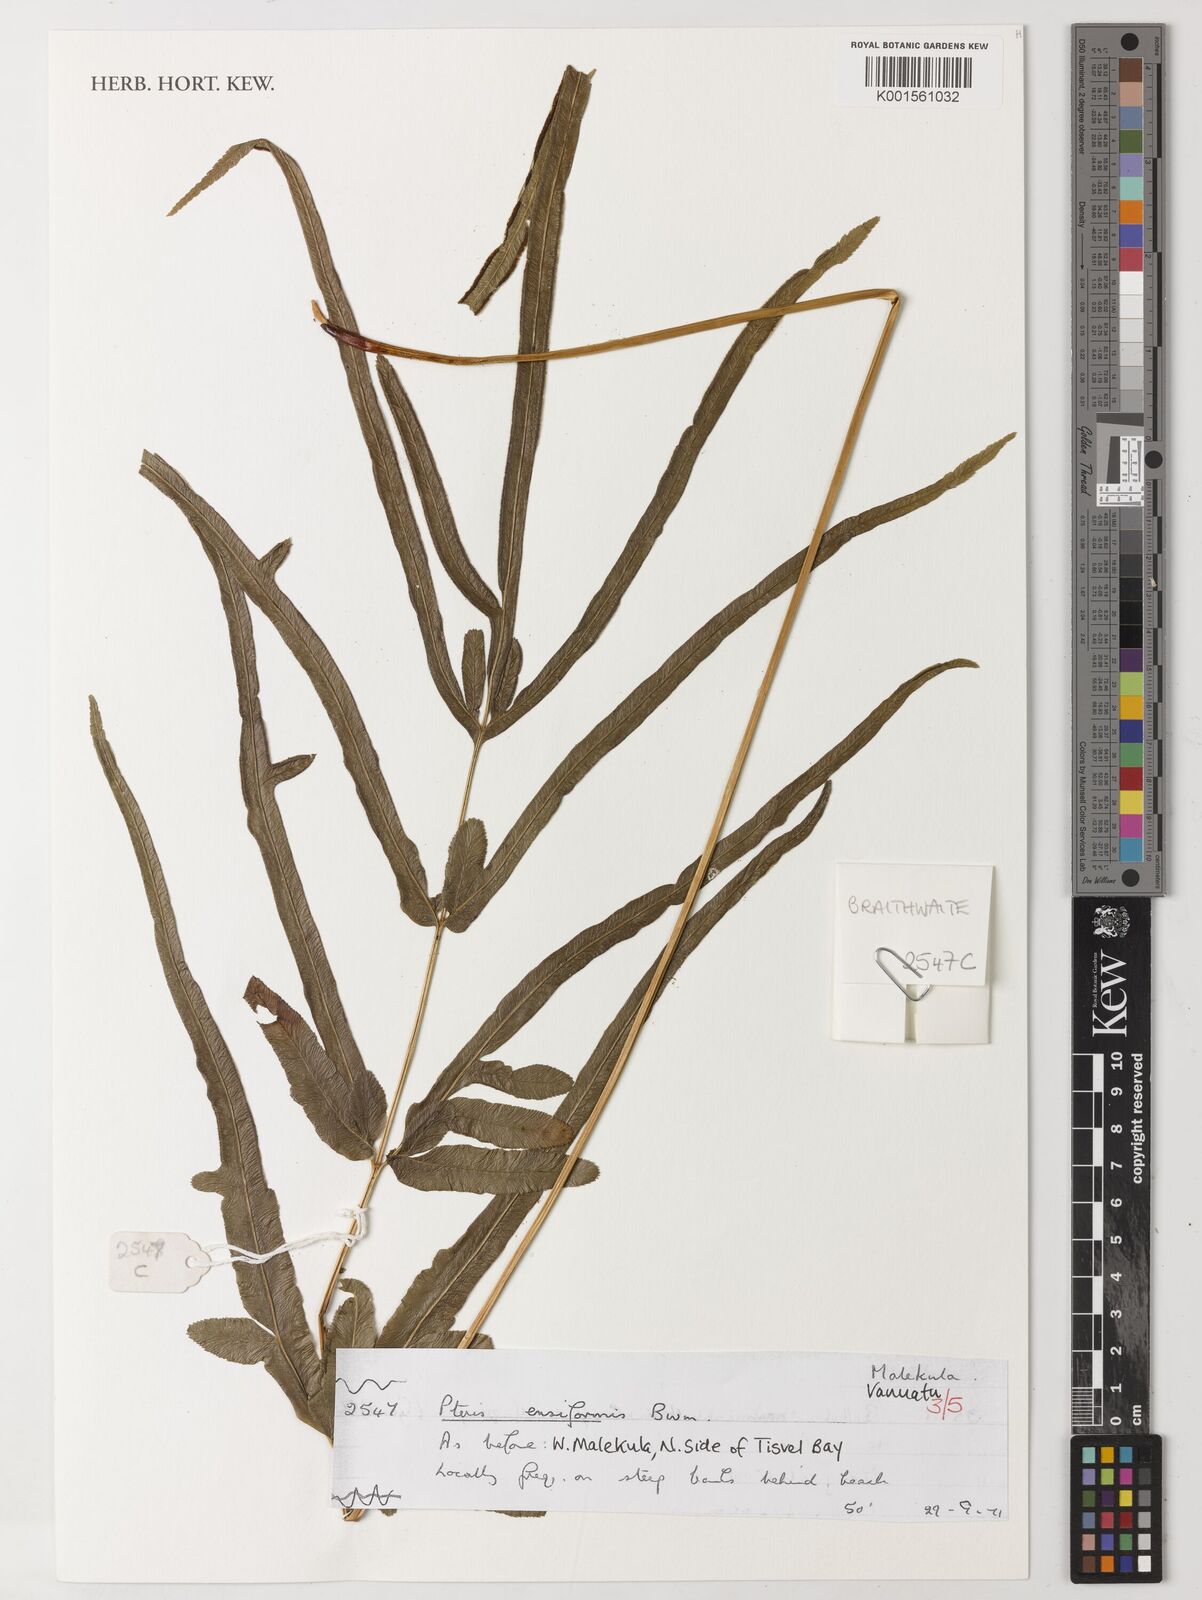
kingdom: Plantae
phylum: Tracheophyta
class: Polypodiopsida
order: Polypodiales
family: Pteridaceae
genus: Pteris
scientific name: Pteris ensiformis
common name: Sword brake
